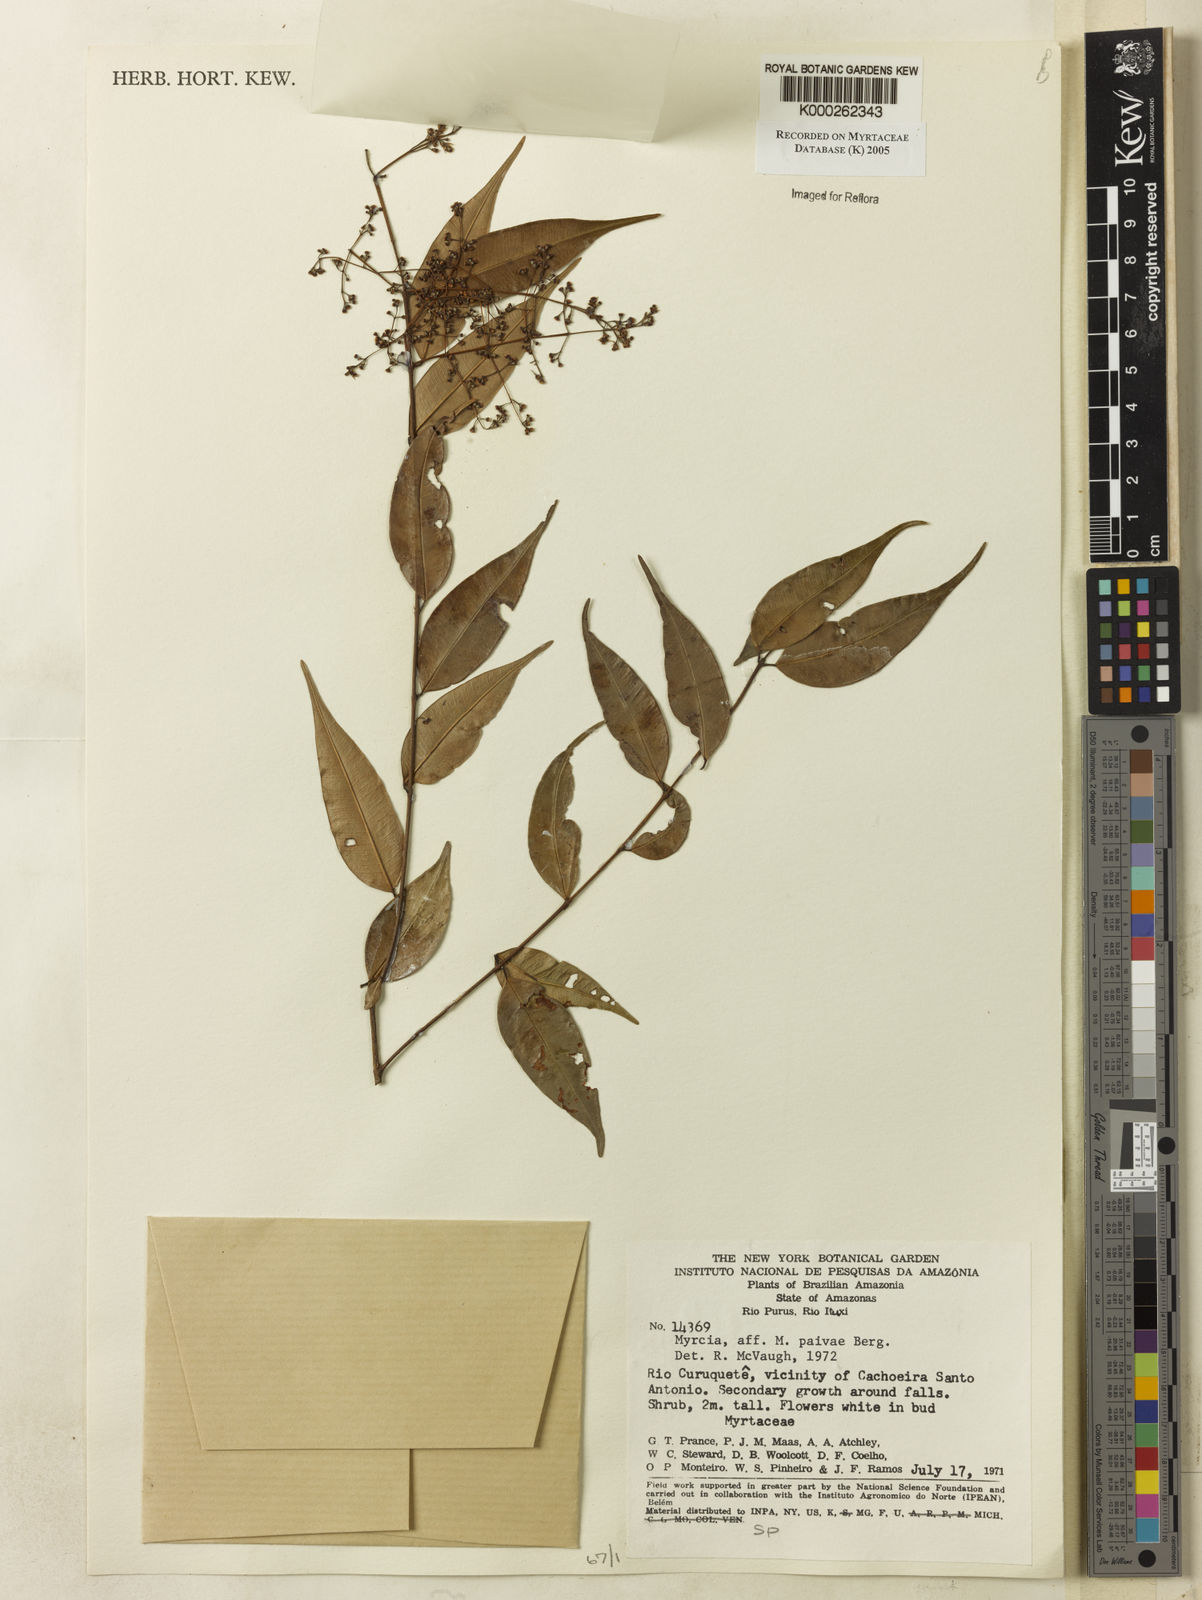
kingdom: Plantae
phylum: Tracheophyta
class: Magnoliopsida
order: Myrtales
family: Myrtaceae
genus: Myrcia
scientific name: Myrcia paivae
